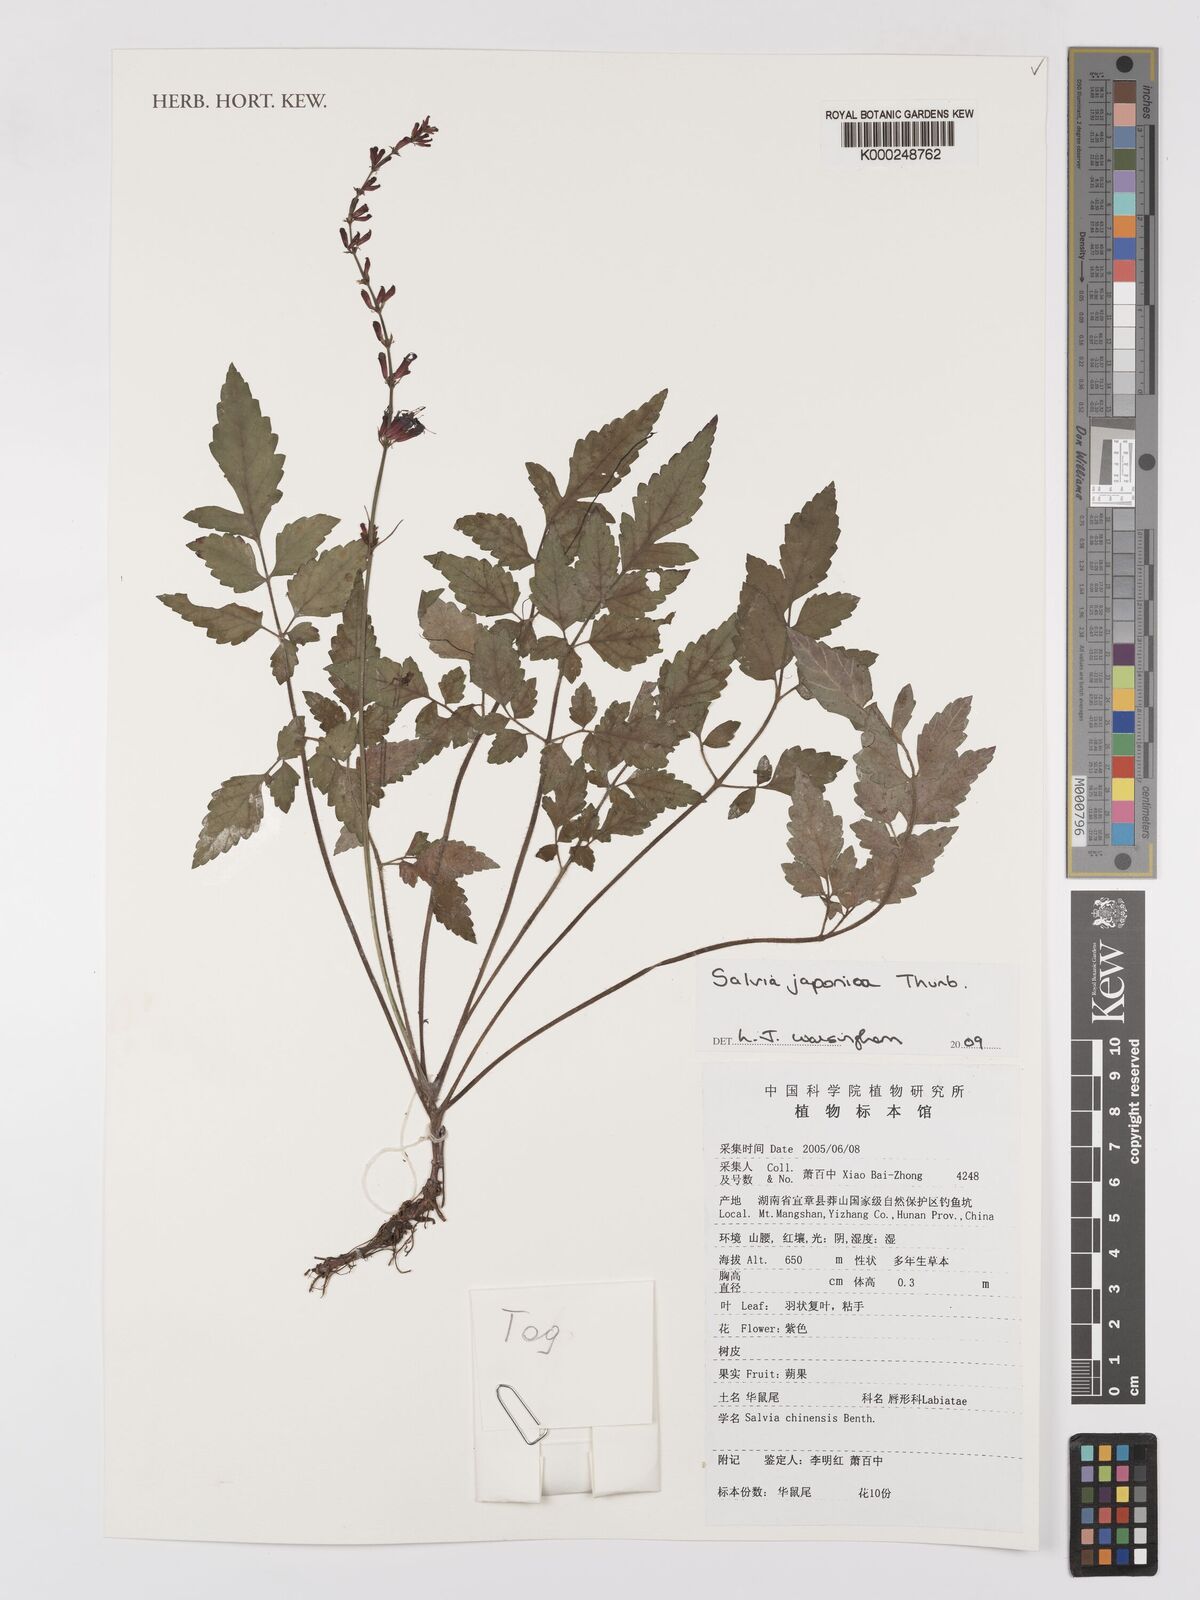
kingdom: Plantae
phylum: Tracheophyta
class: Magnoliopsida
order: Lamiales
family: Lamiaceae
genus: Salvia
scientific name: Salvia japonica
